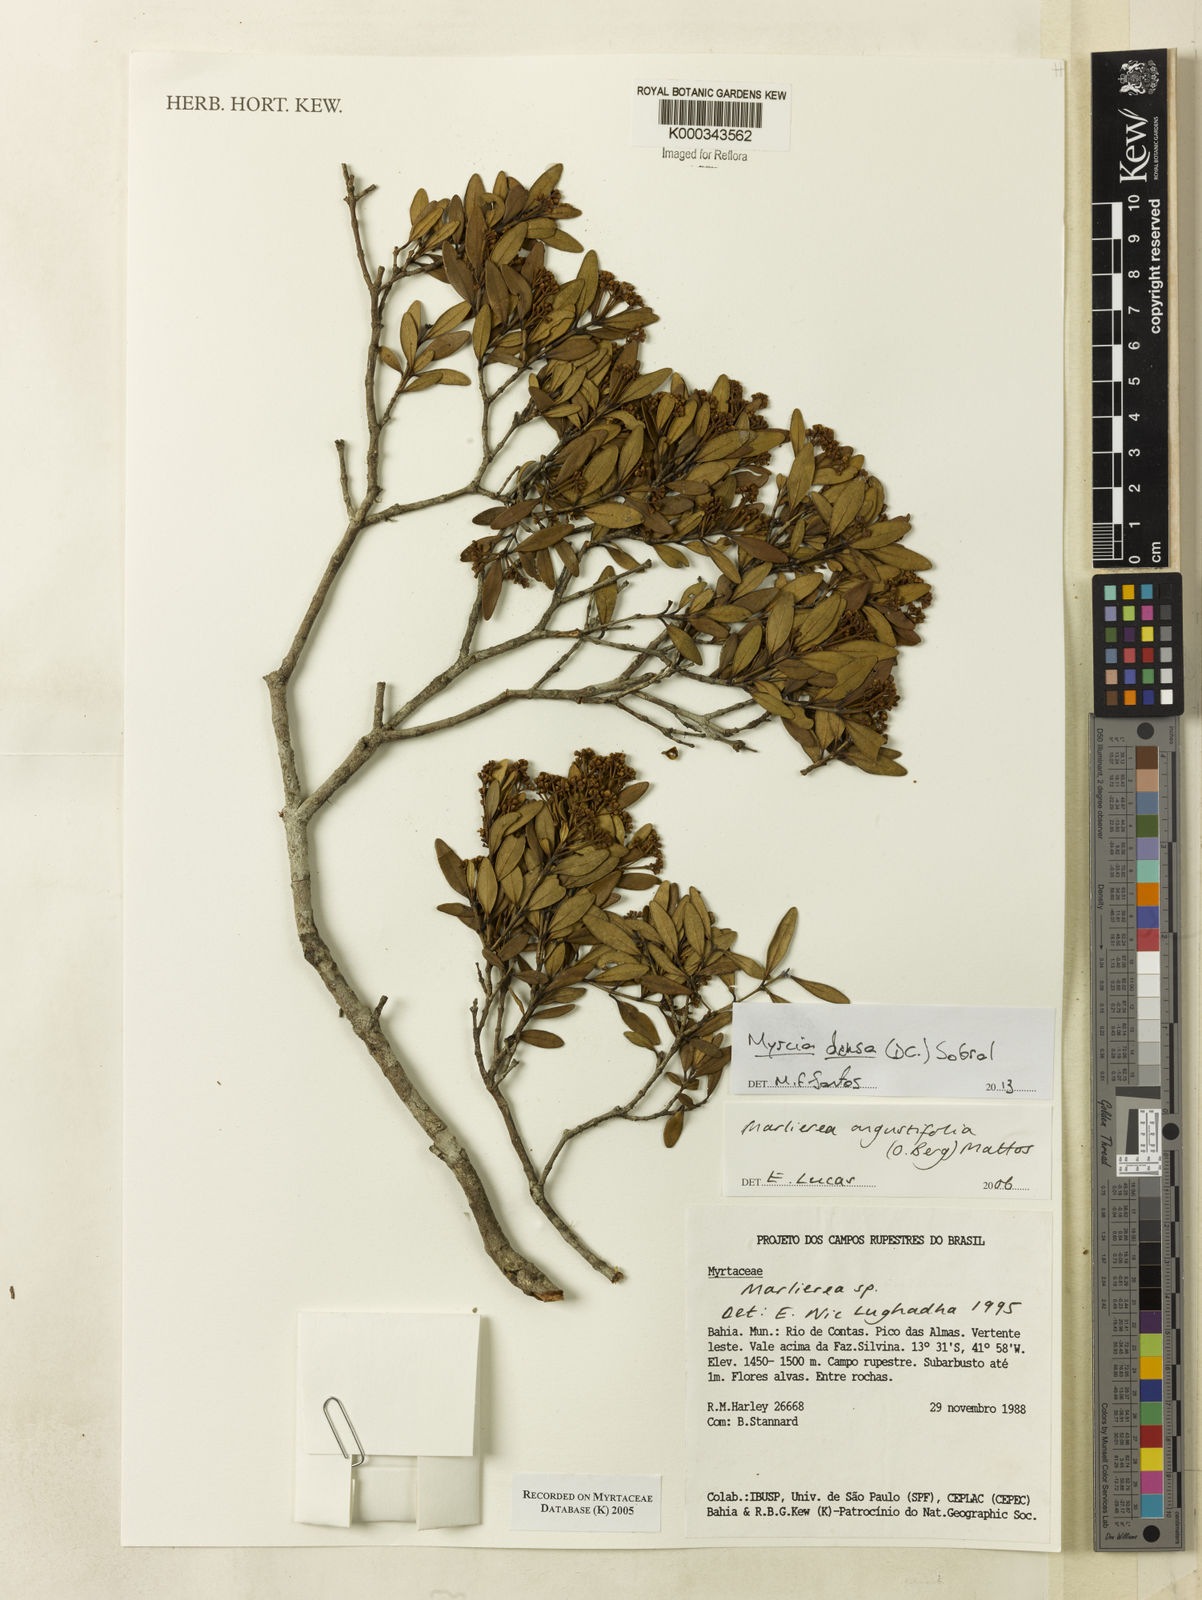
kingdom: Plantae
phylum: Tracheophyta
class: Magnoliopsida
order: Myrtales
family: Myrtaceae
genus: Marlierea
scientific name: Marlierea
